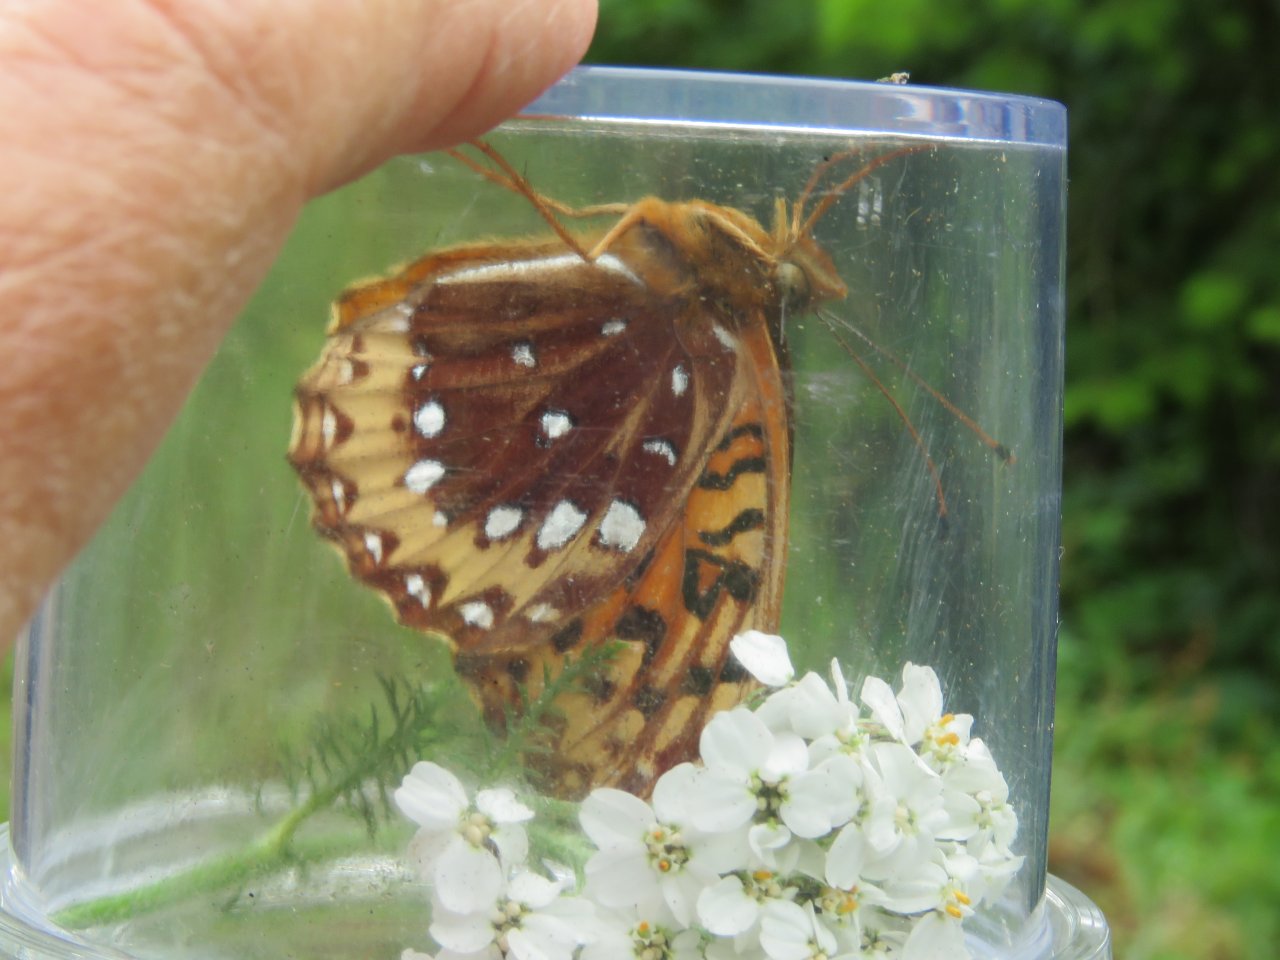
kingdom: Animalia
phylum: Arthropoda
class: Insecta
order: Lepidoptera
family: Nymphalidae
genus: Speyeria
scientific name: Speyeria cybele
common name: Great Spangled Fritillary
